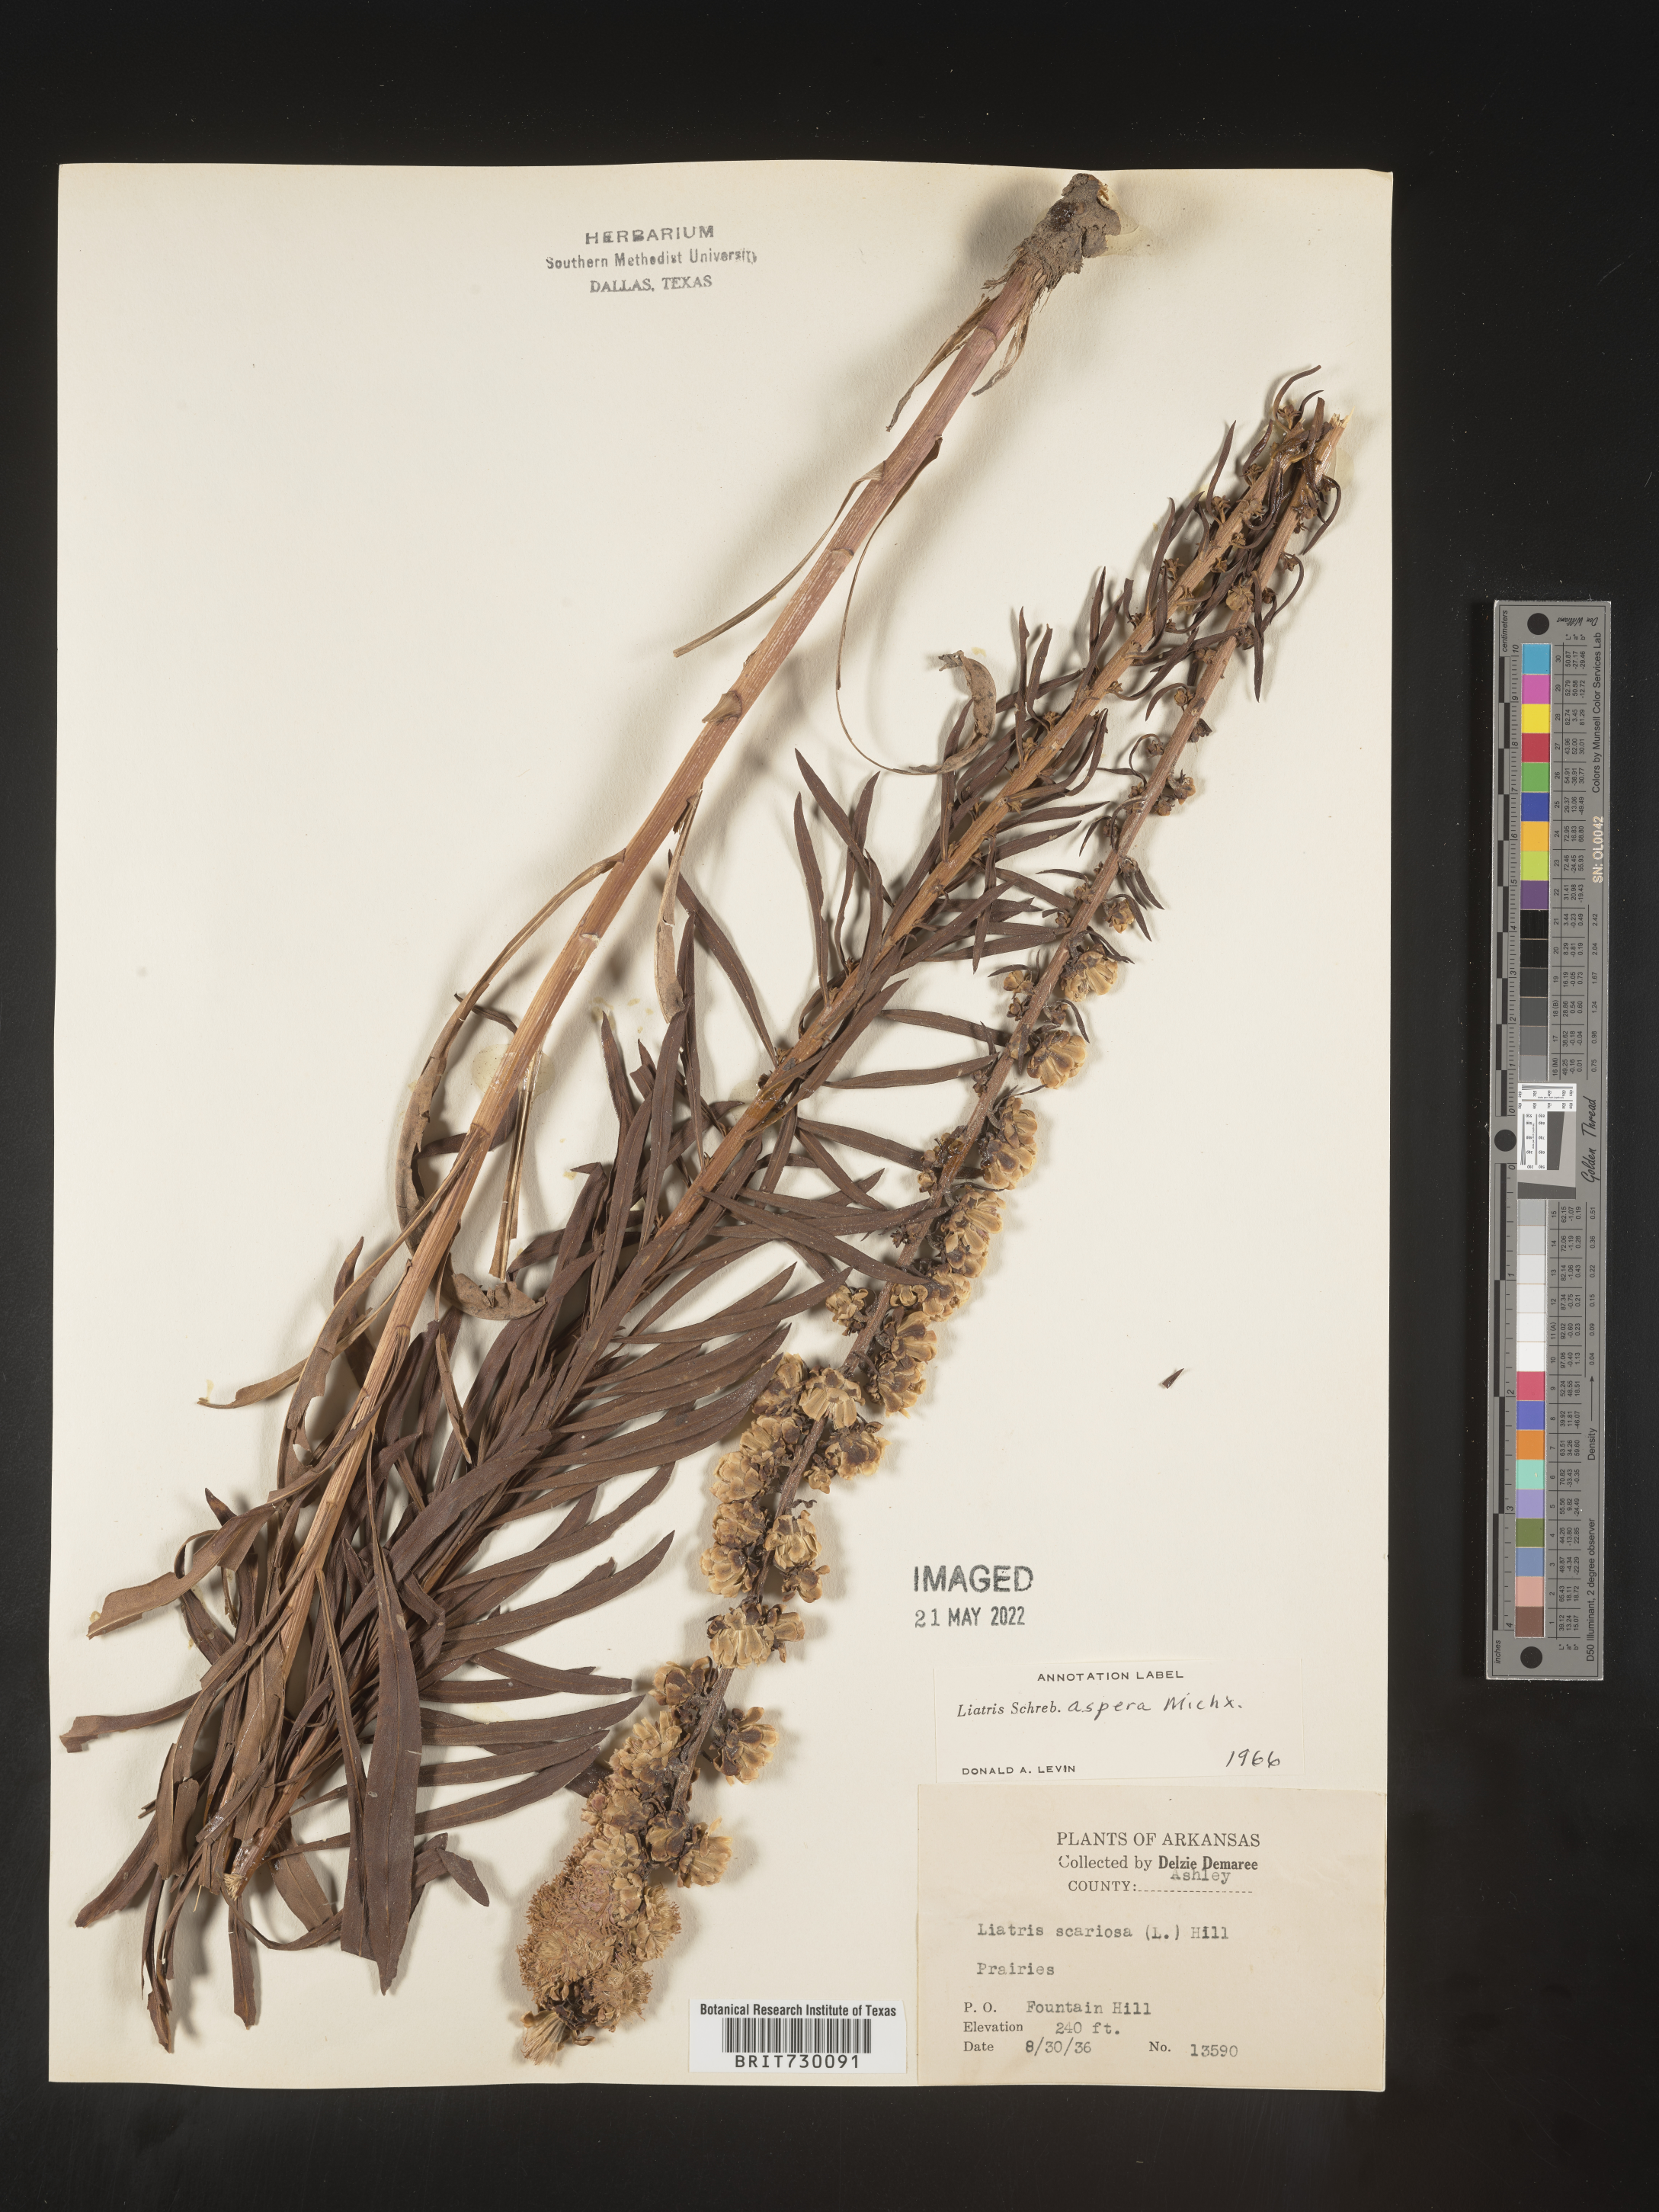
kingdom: Plantae
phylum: Tracheophyta
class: Magnoliopsida
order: Asterales
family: Asteraceae
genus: Liatris
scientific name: Liatris aspera
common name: Lacerate blazing-star
